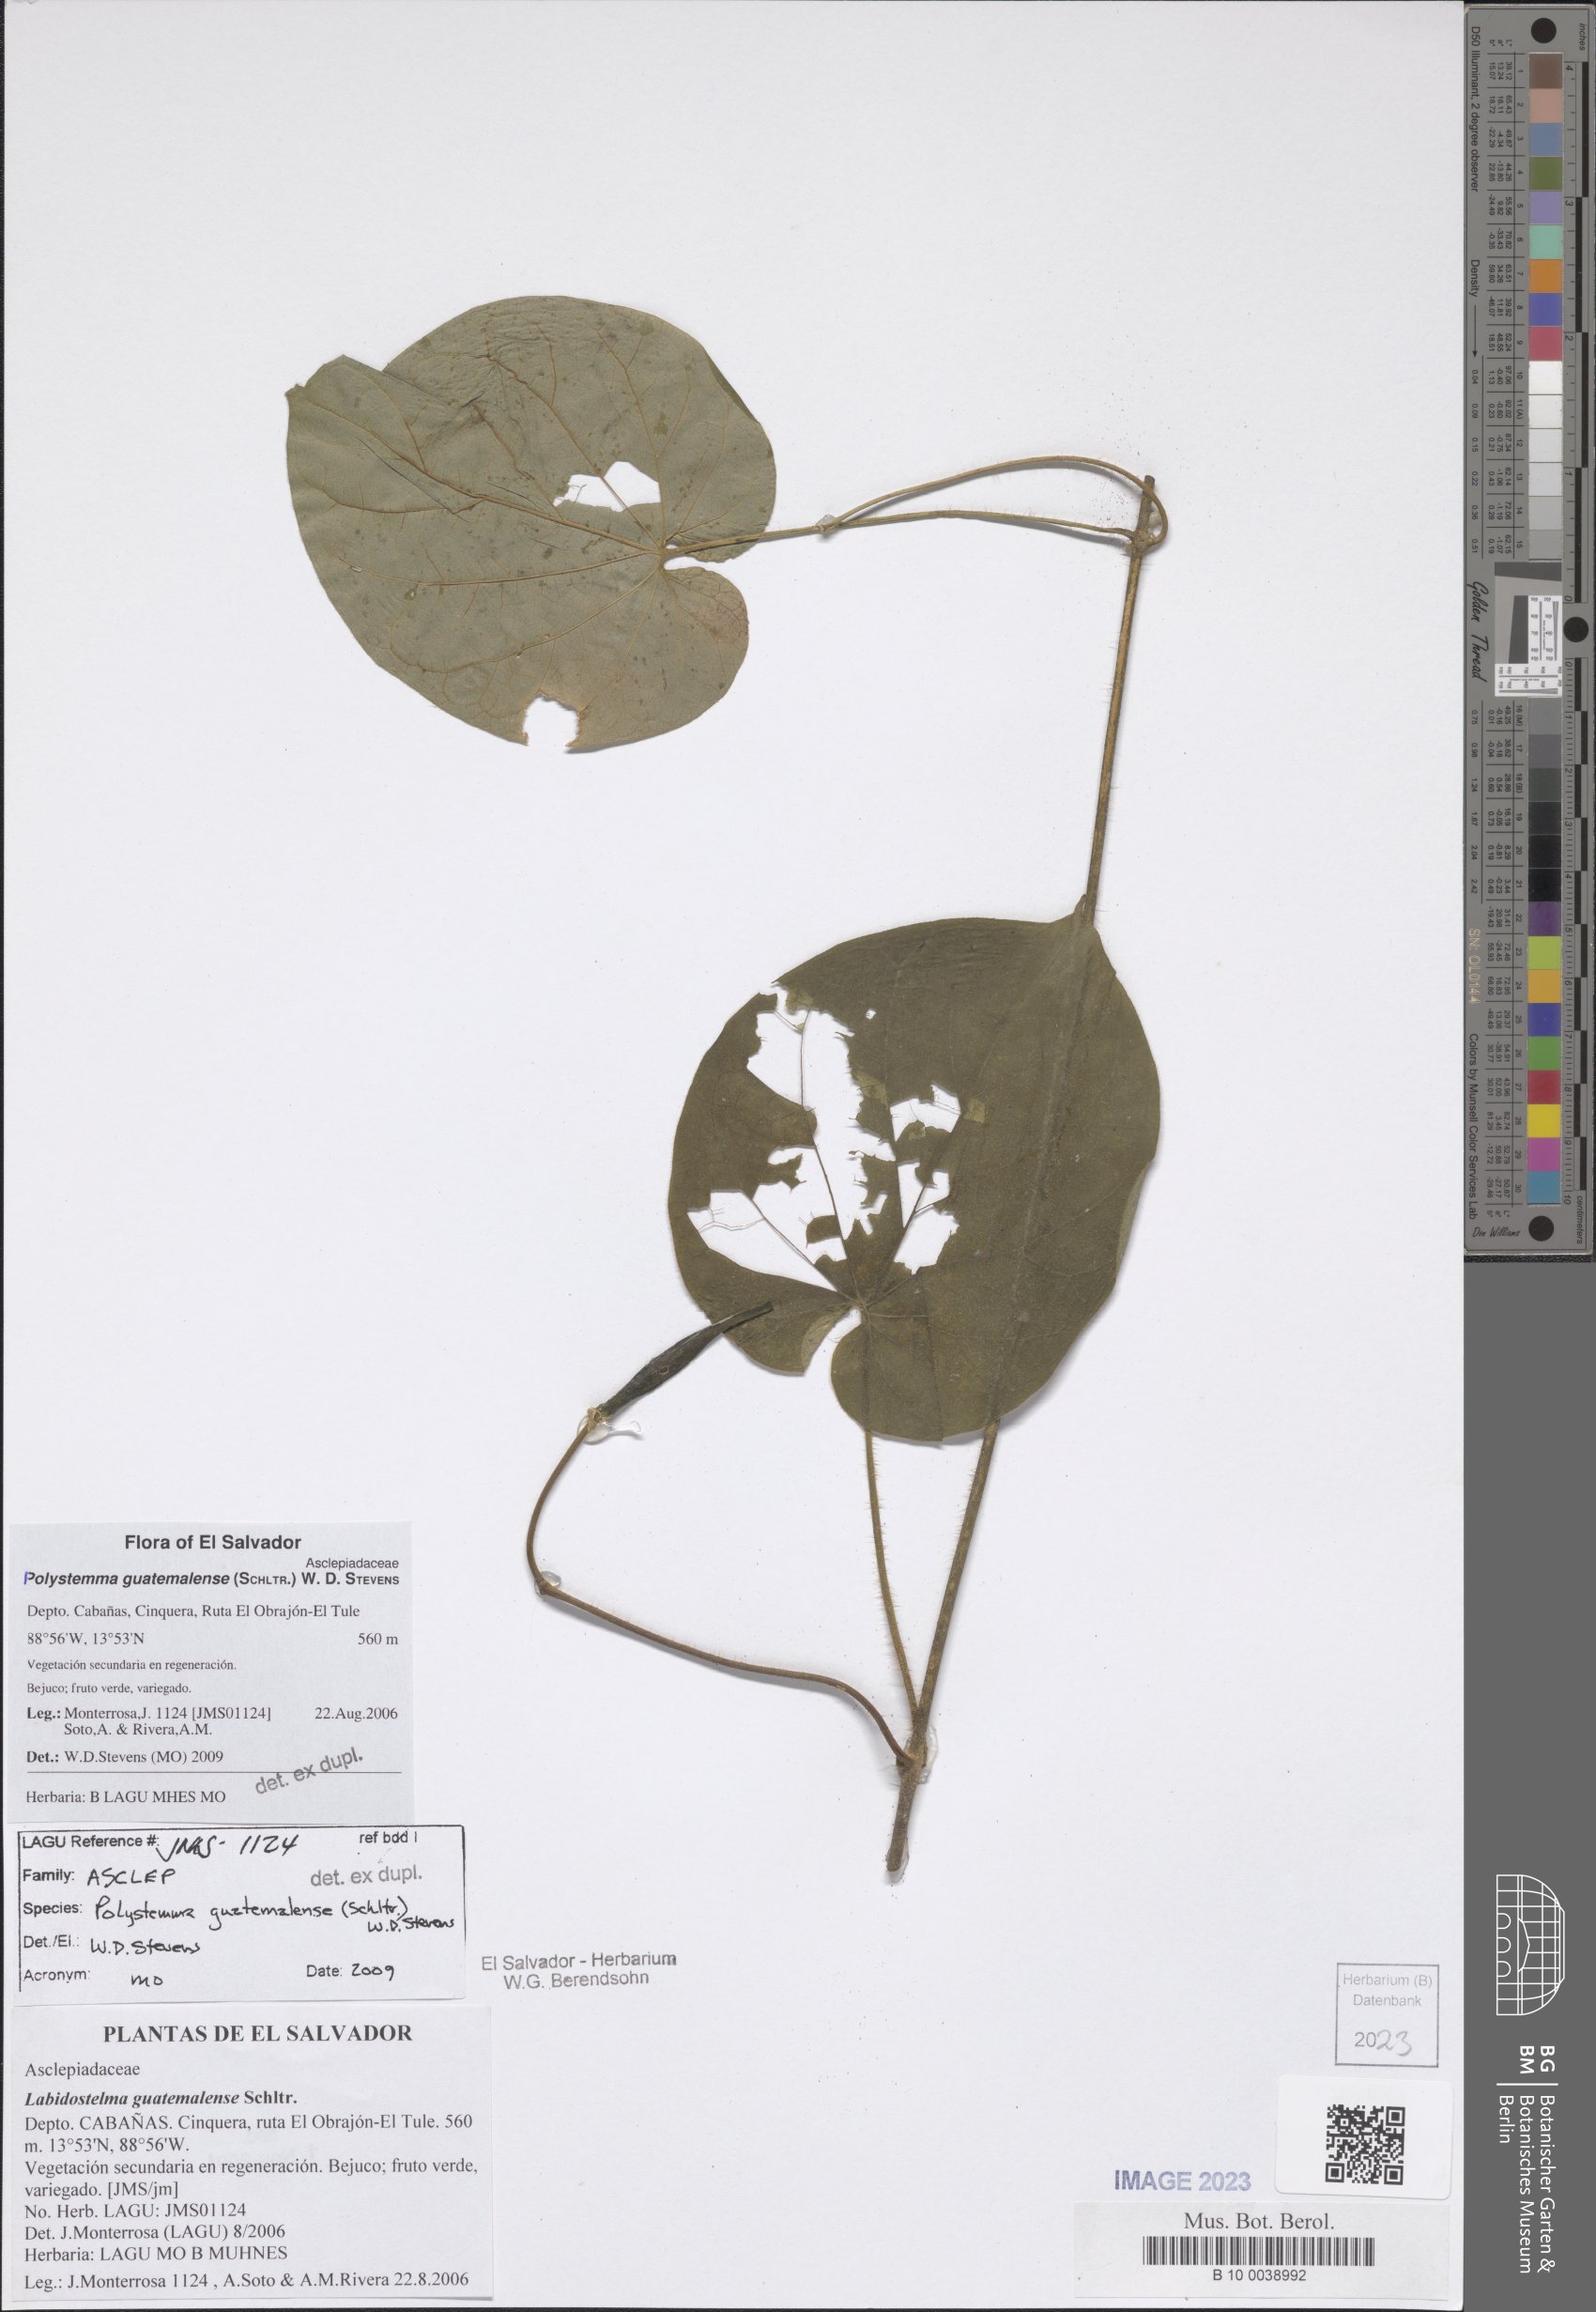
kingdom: Plantae
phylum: Tracheophyta
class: Magnoliopsida
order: Gentianales
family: Apocynaceae
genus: Polystemma
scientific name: Polystemma guatemalense
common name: Arborescente rattan
